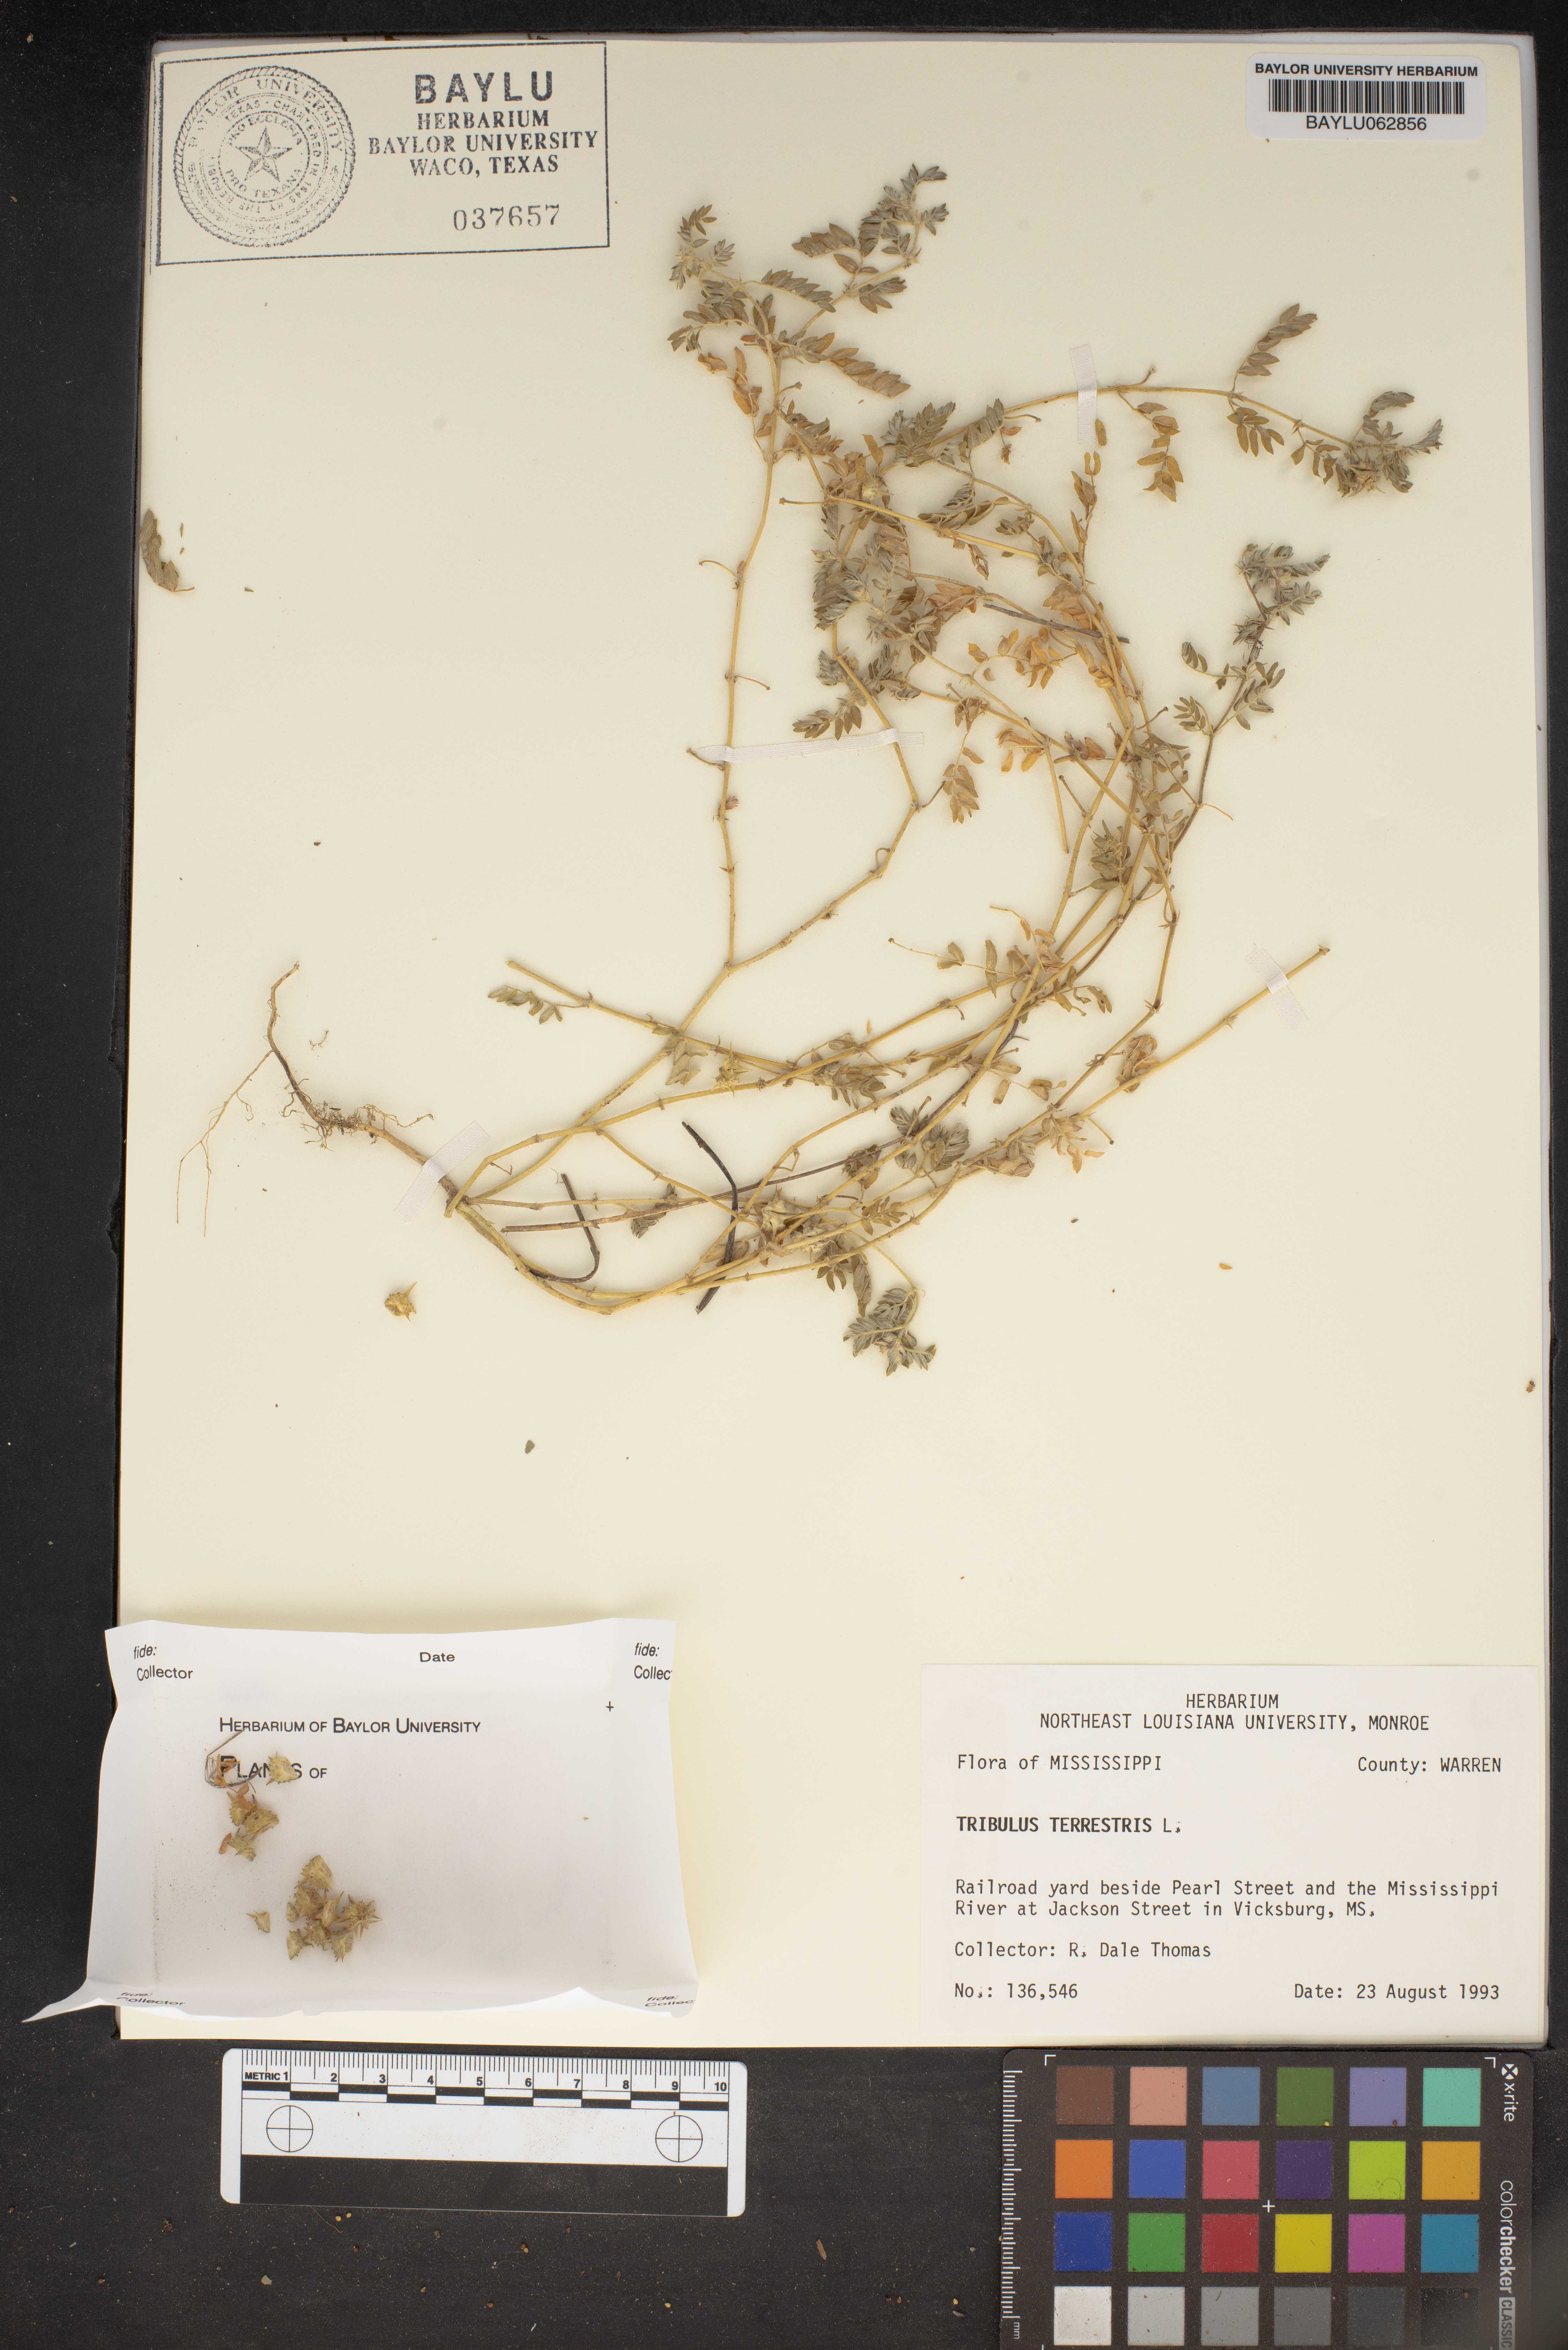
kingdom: Plantae
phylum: Tracheophyta
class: Magnoliopsida
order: Zygophyllales
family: Zygophyllaceae
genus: Tribulus
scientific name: Tribulus terrestris
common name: Puncturevine
